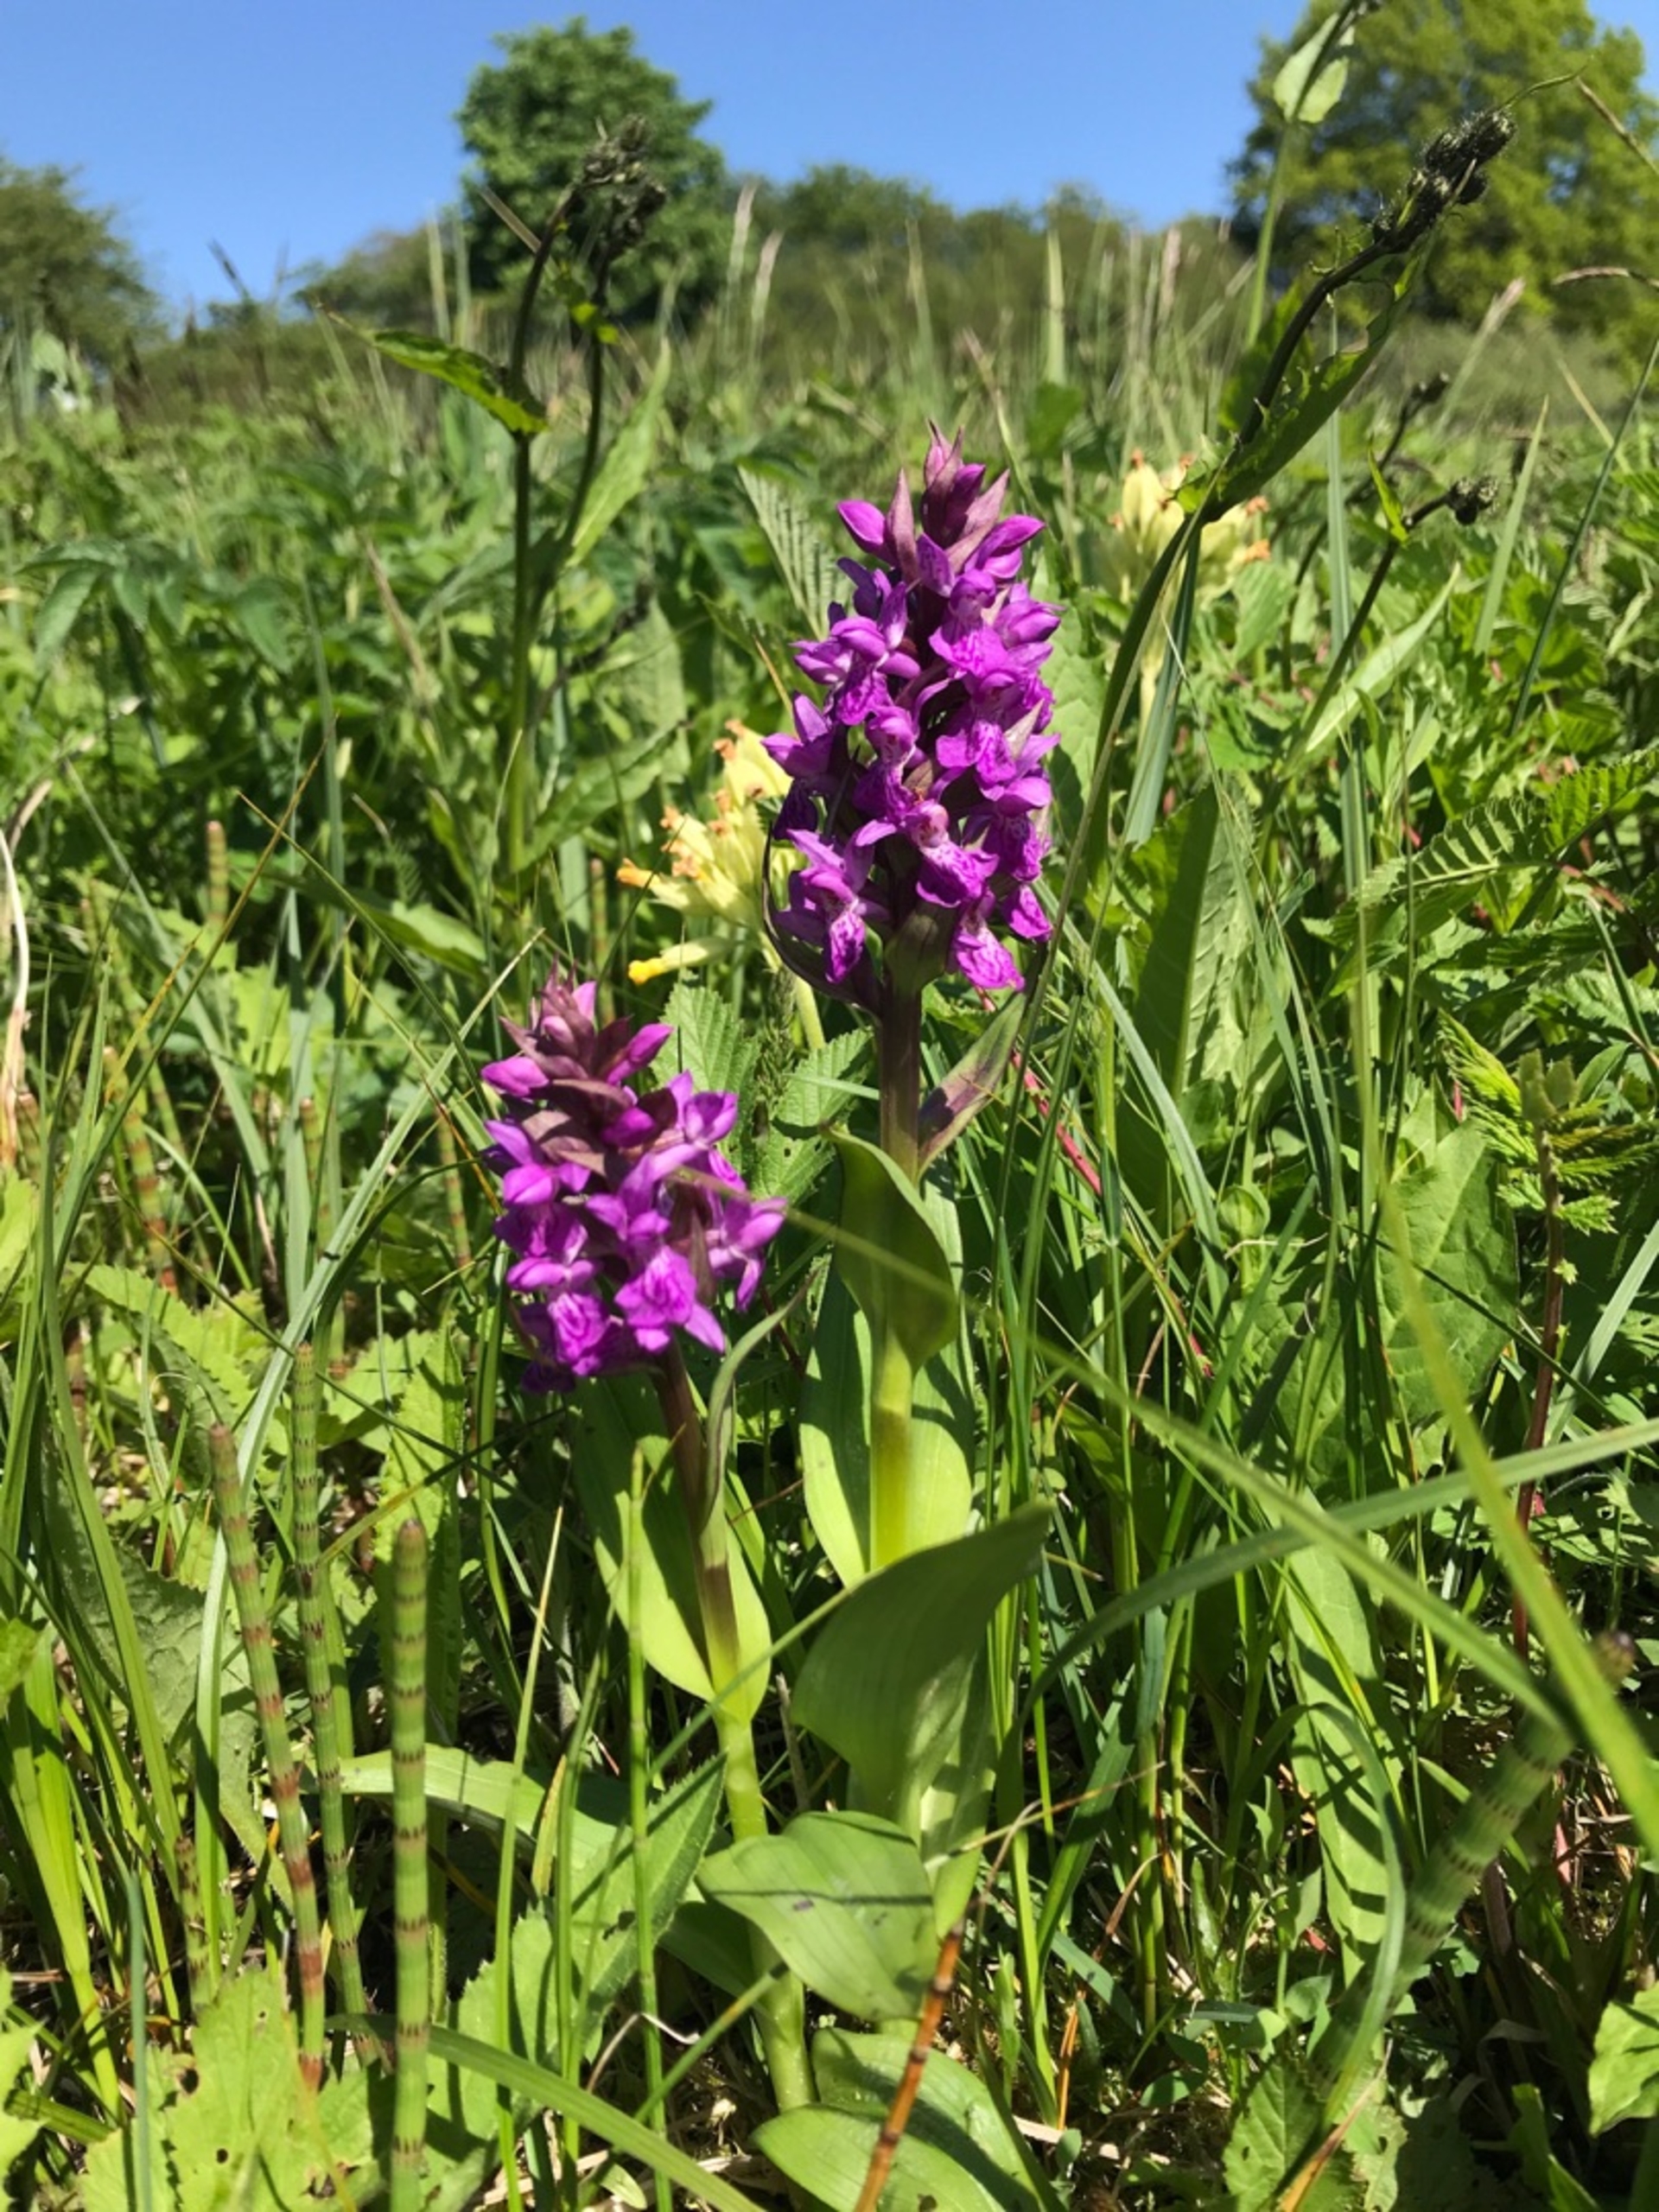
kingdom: Plantae
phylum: Tracheophyta
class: Liliopsida
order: Asparagales
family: Orchidaceae
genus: Dactylorhiza
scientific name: Dactylorhiza majalis
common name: Maj-gøgeurt (underart)
